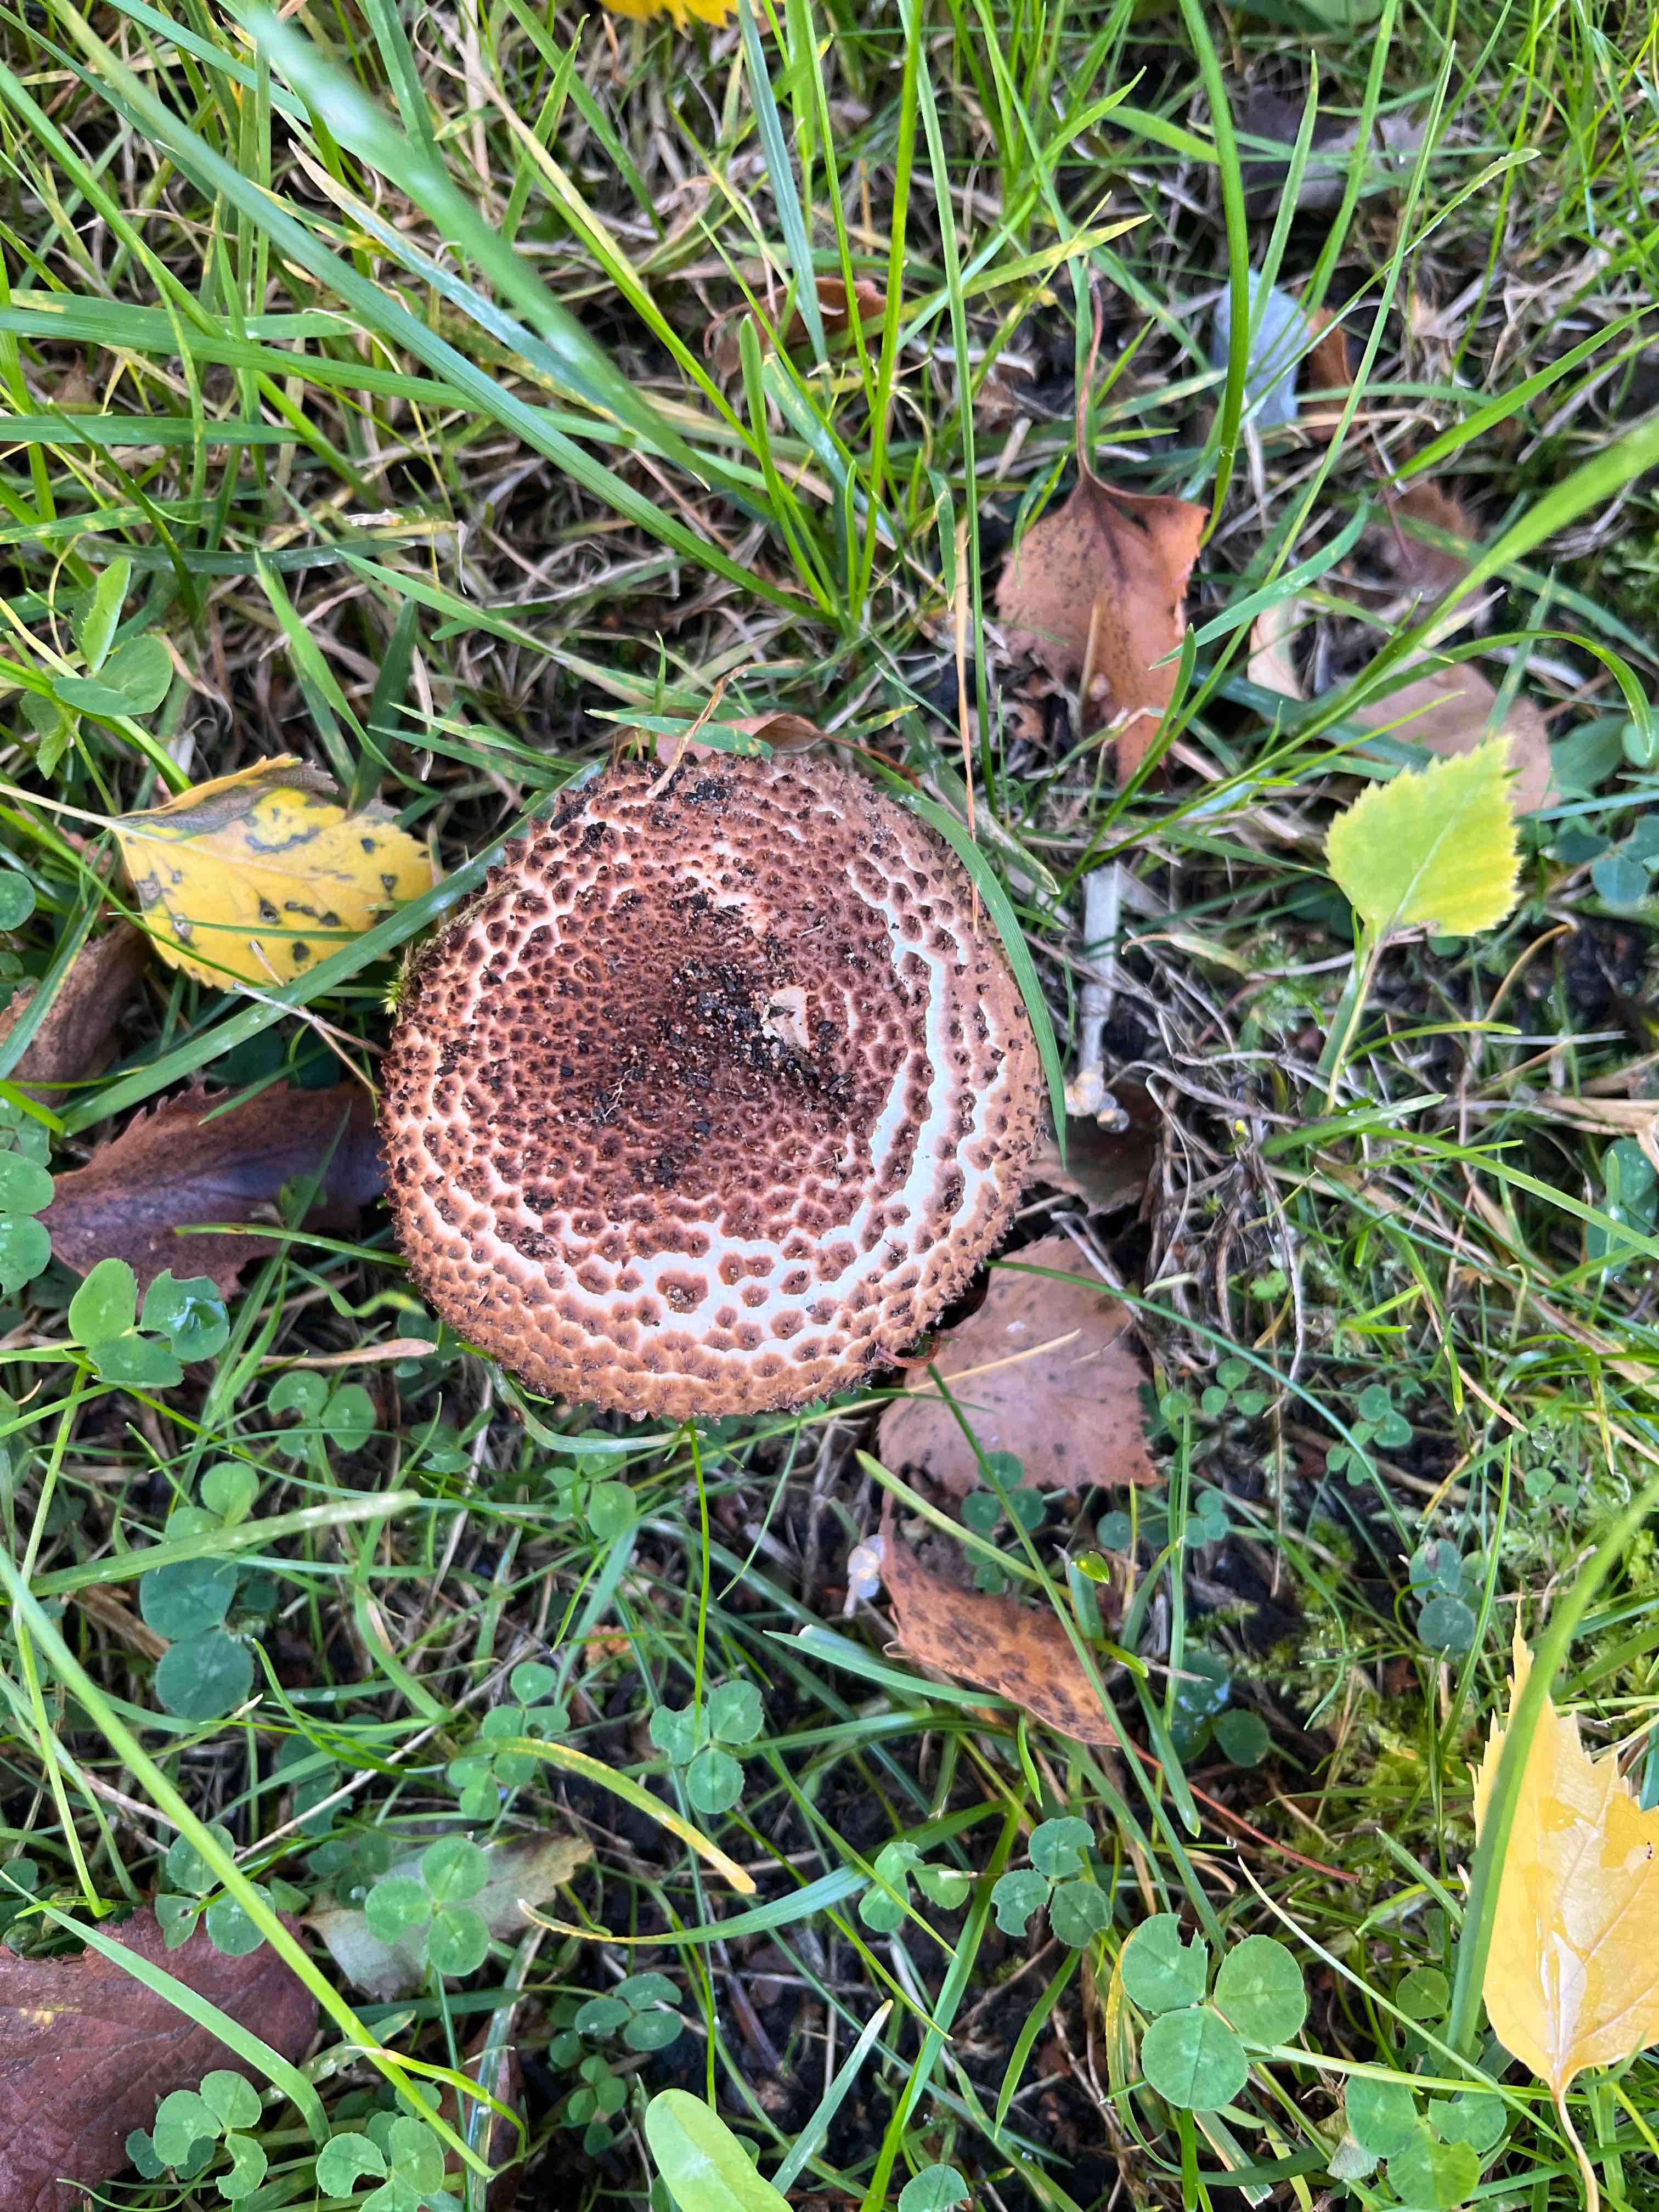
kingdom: Fungi
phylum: Basidiomycota
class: Agaricomycetes
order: Agaricales
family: Agaricaceae
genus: Echinoderma
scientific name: Echinoderma asperum
